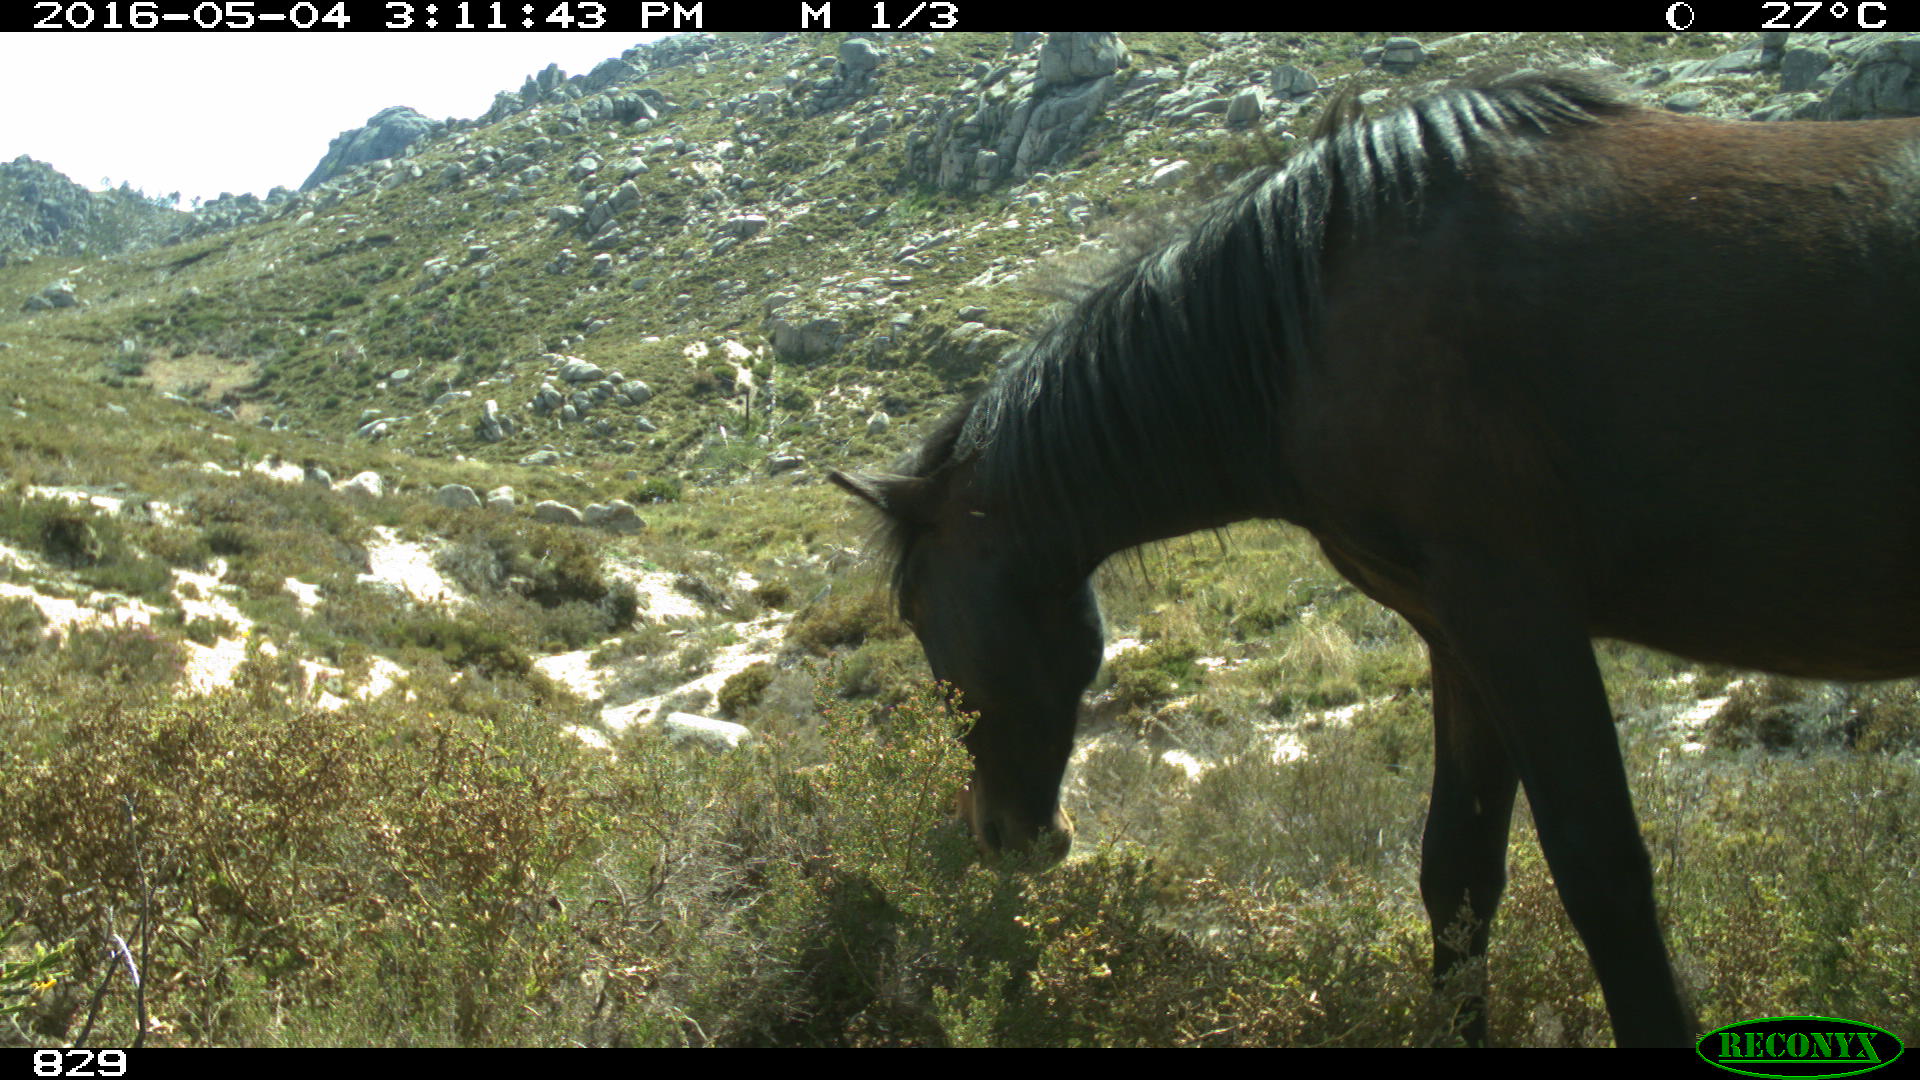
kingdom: Animalia
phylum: Chordata
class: Mammalia
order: Perissodactyla
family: Equidae
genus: Equus
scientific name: Equus caballus
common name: Horse
